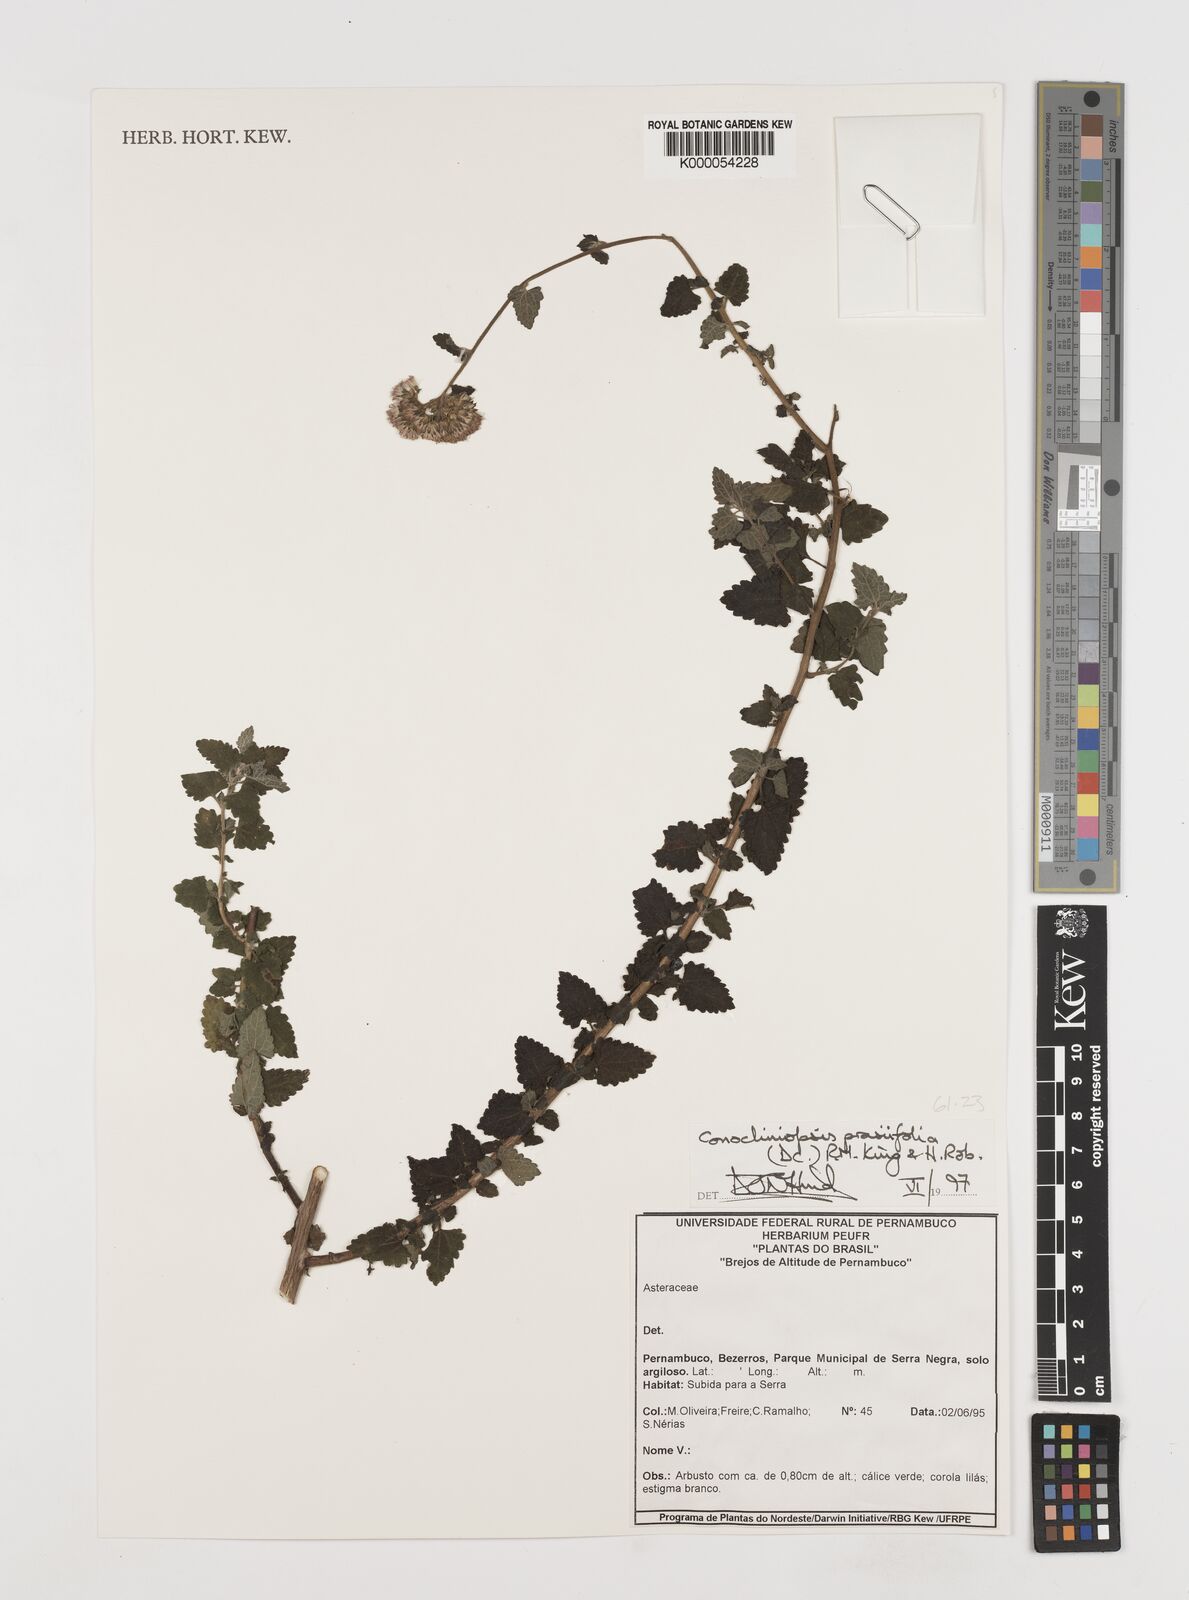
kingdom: Plantae
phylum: Tracheophyta
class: Magnoliopsida
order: Asterales
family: Asteraceae
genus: Conocliniopsis
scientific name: Conocliniopsis grossedentata
